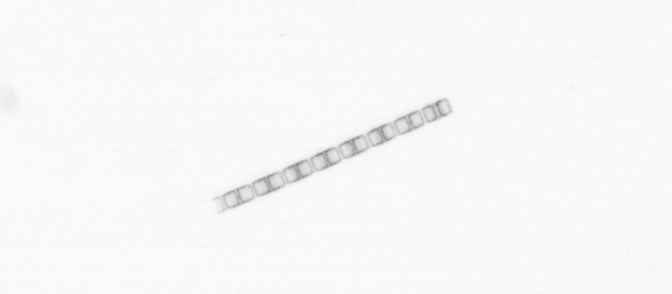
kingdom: Chromista
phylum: Ochrophyta
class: Bacillariophyceae
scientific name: Bacillariophyceae
